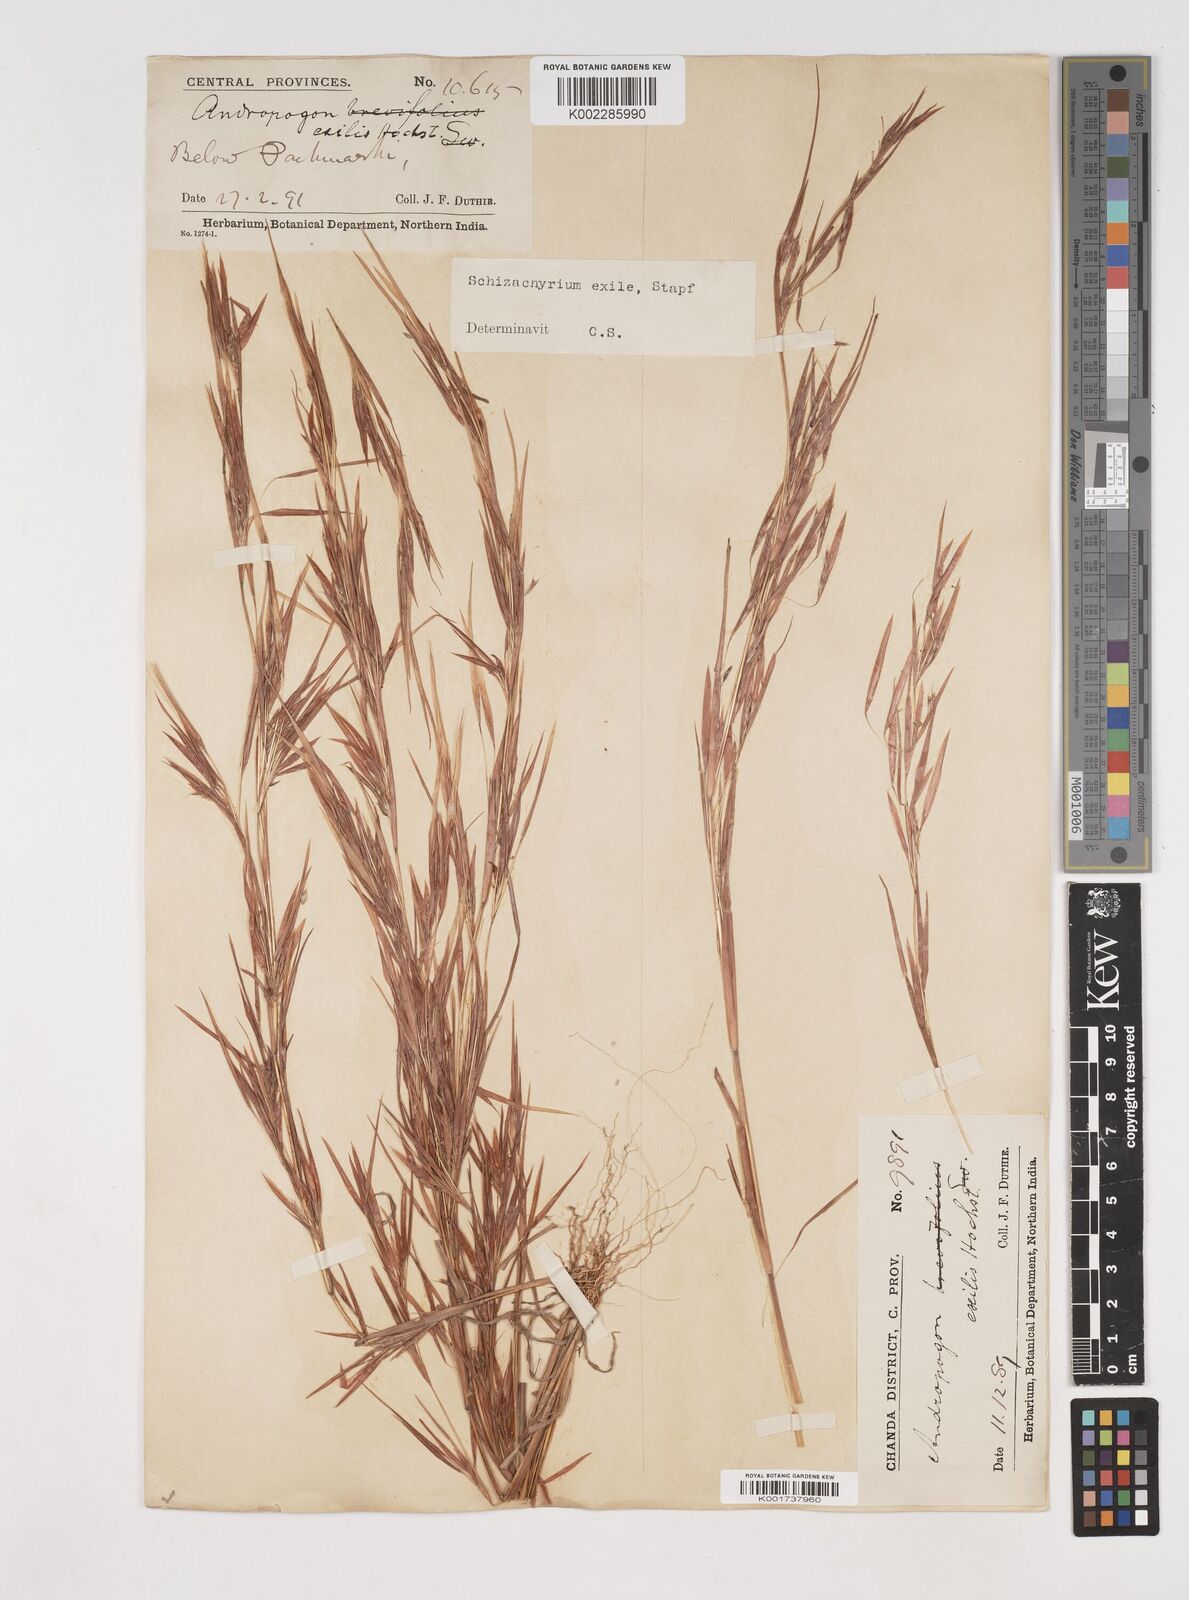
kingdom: Plantae
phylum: Tracheophyta
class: Liliopsida
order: Poales
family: Poaceae
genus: Schizachyrium
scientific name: Schizachyrium exile
